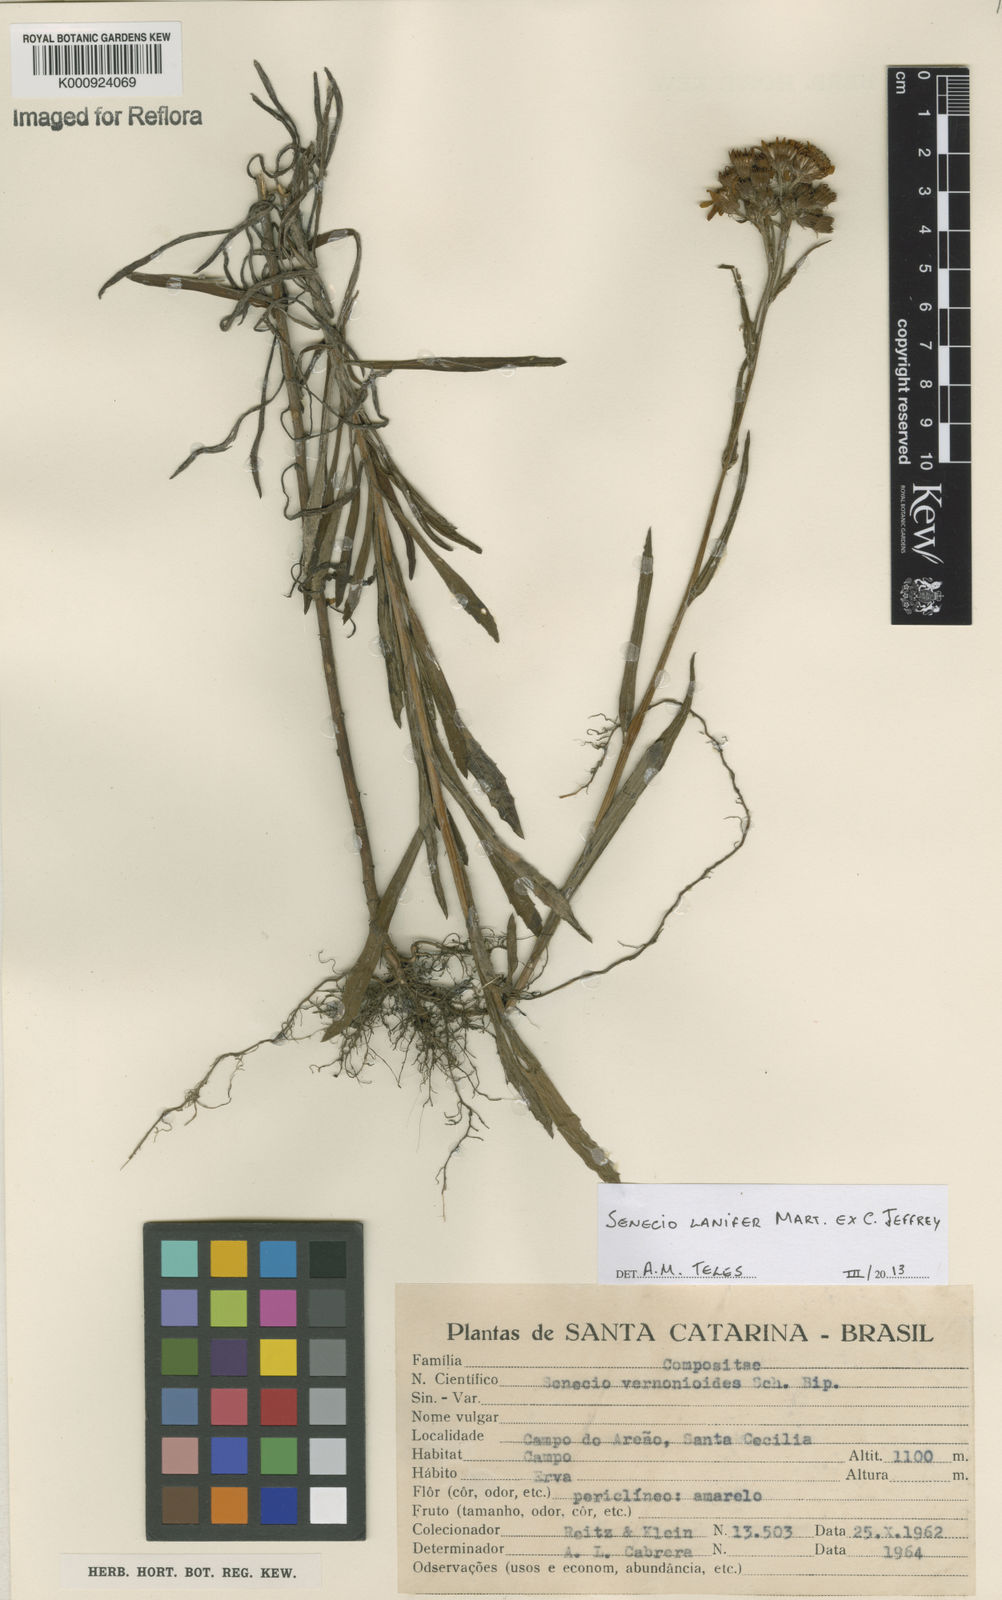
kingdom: Plantae
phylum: Tracheophyta
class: Magnoliopsida
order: Asterales
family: Asteraceae
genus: Senecio
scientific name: Senecio lanifer
